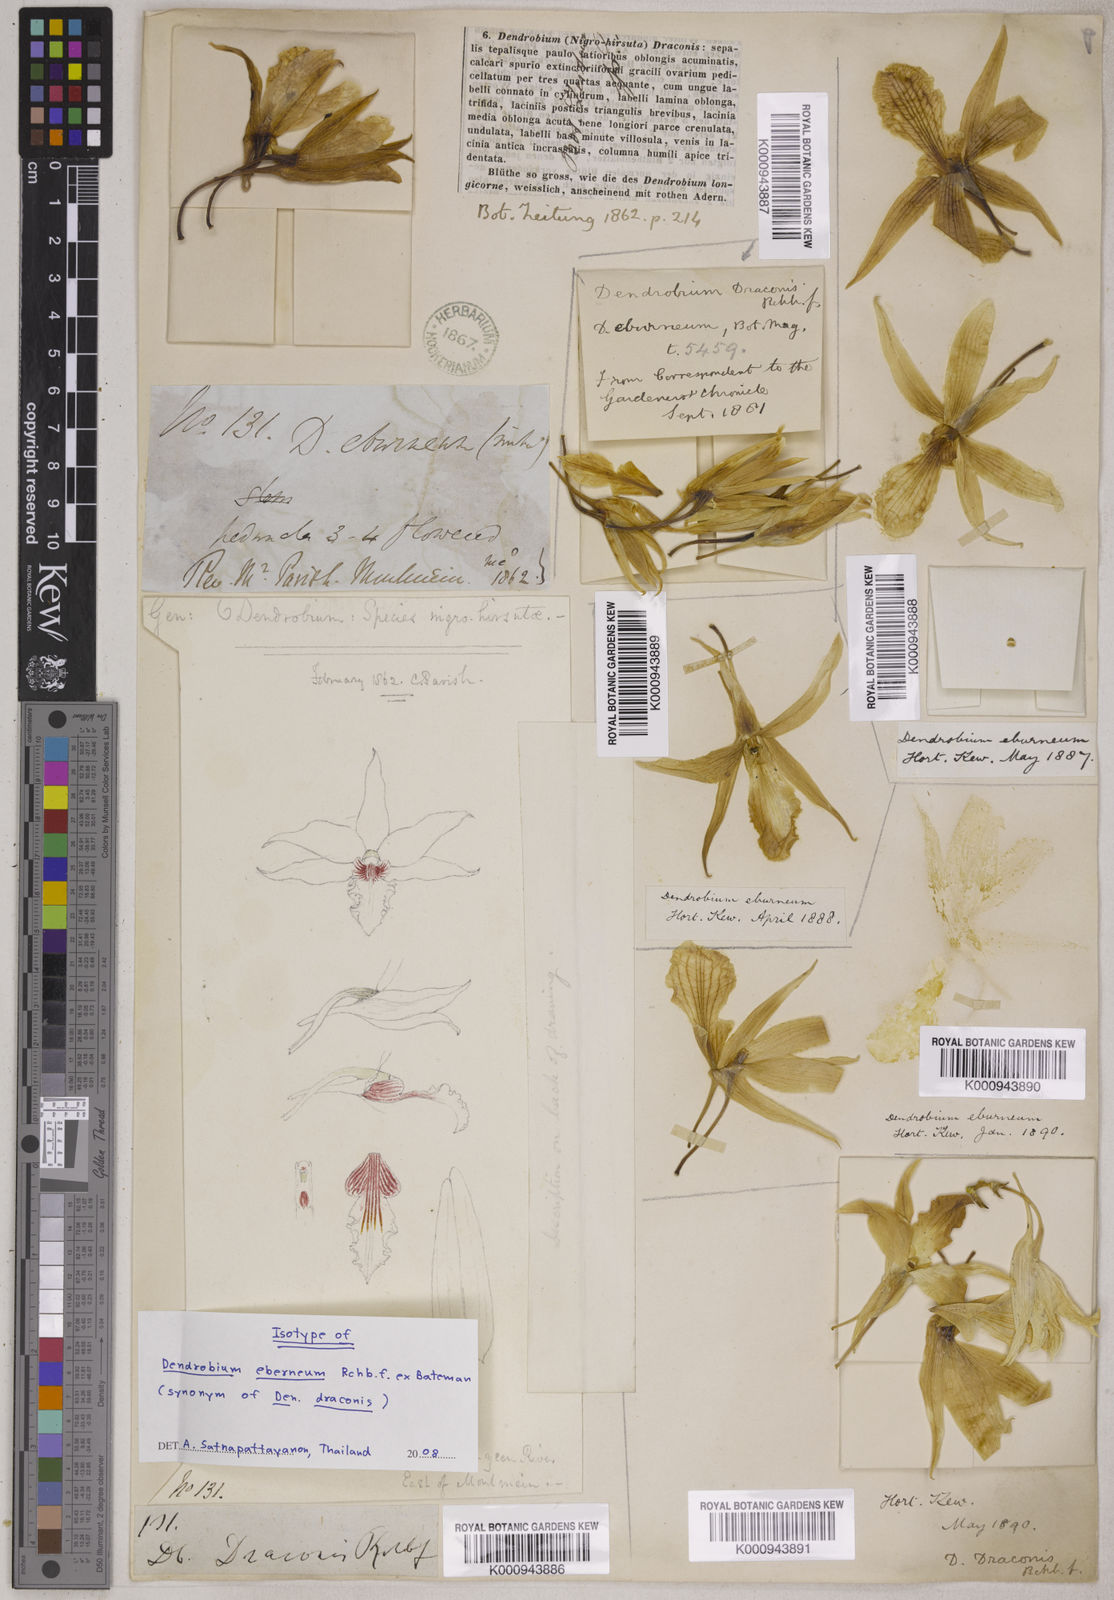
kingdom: Plantae
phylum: Tracheophyta
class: Liliopsida
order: Asparagales
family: Orchidaceae
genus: Dendrobium
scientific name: Dendrobium draconis
